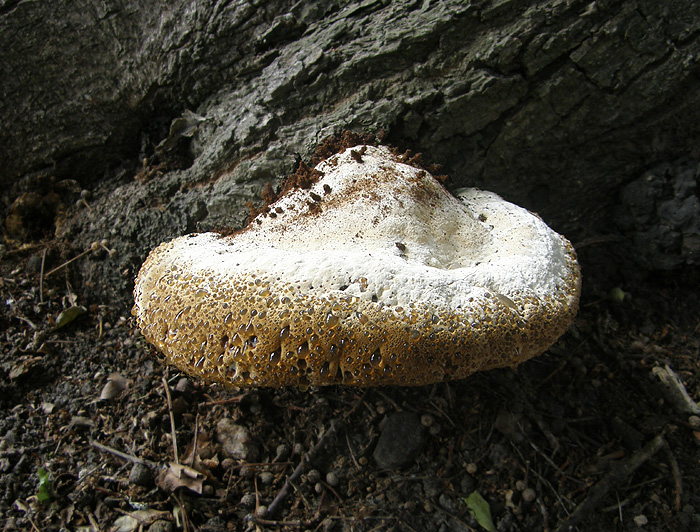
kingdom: Fungi
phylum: Basidiomycota
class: Agaricomycetes
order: Hymenochaetales
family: Hymenochaetaceae
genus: Pseudoinonotus
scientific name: Pseudoinonotus dryadeus
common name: ege-spejlporesvamp
